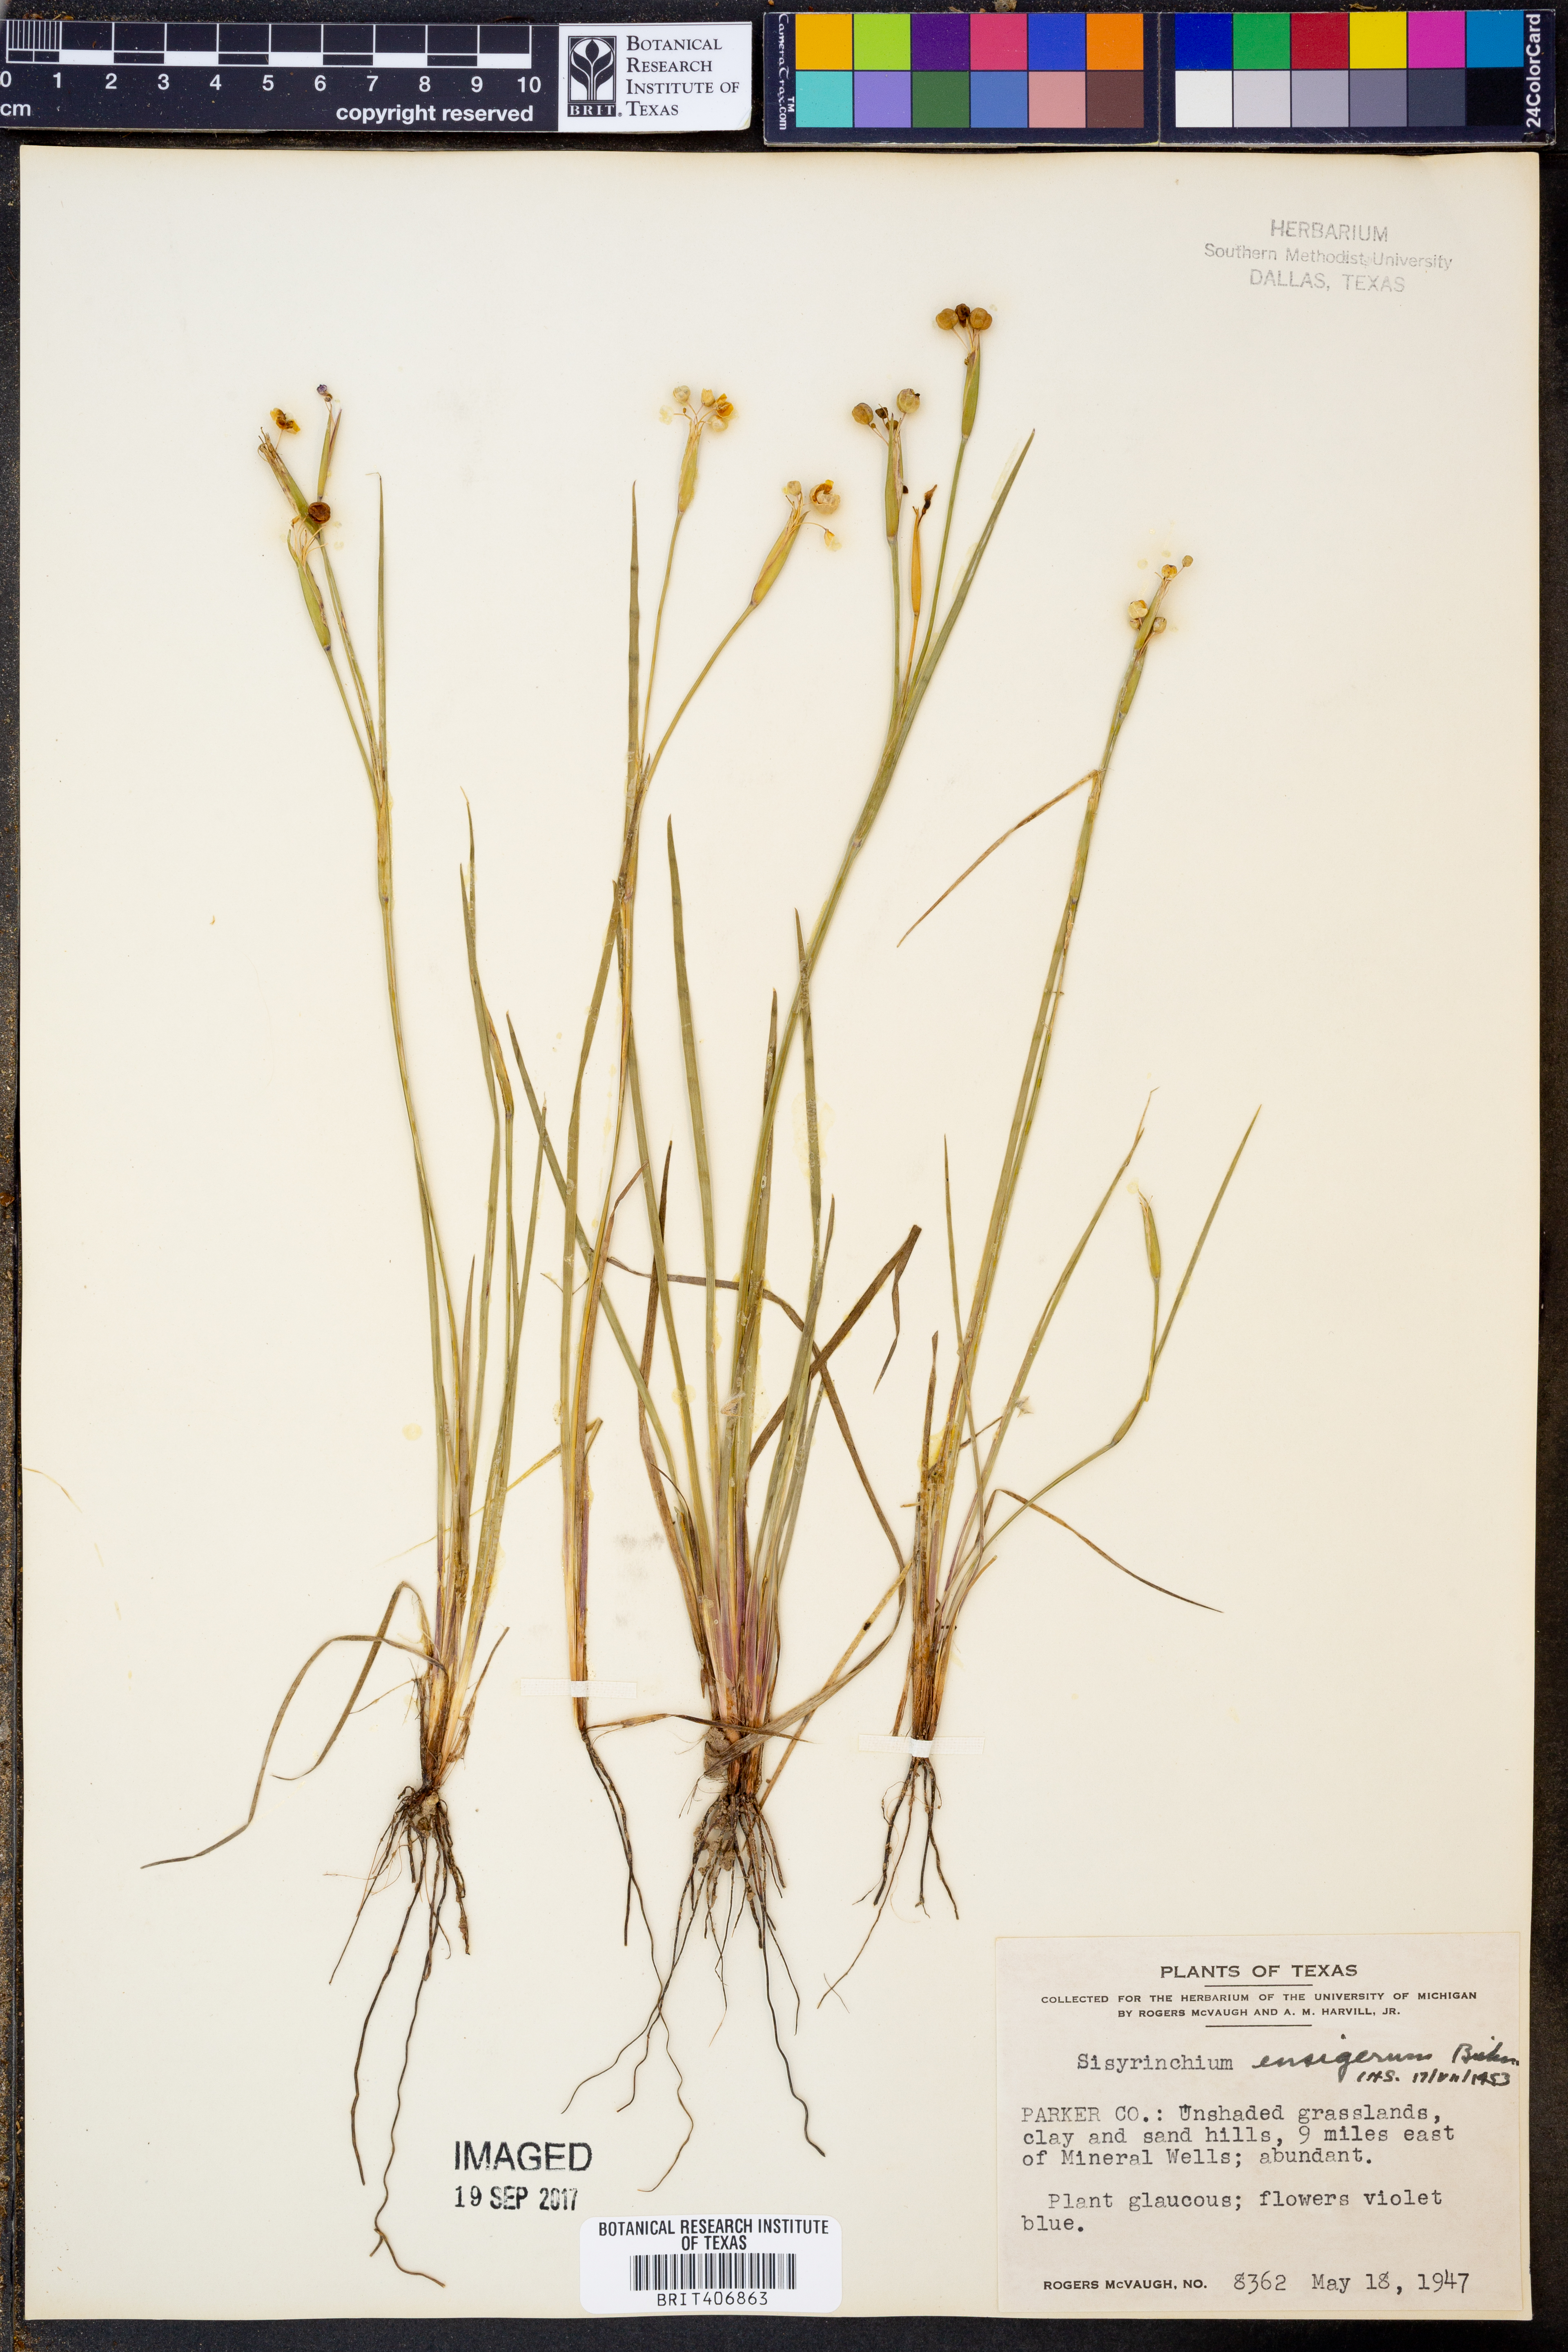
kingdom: Plantae
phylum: Tracheophyta
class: Liliopsida
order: Asparagales
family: Iridaceae
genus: Sisyrinchium
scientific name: Sisyrinchium ensigerum
